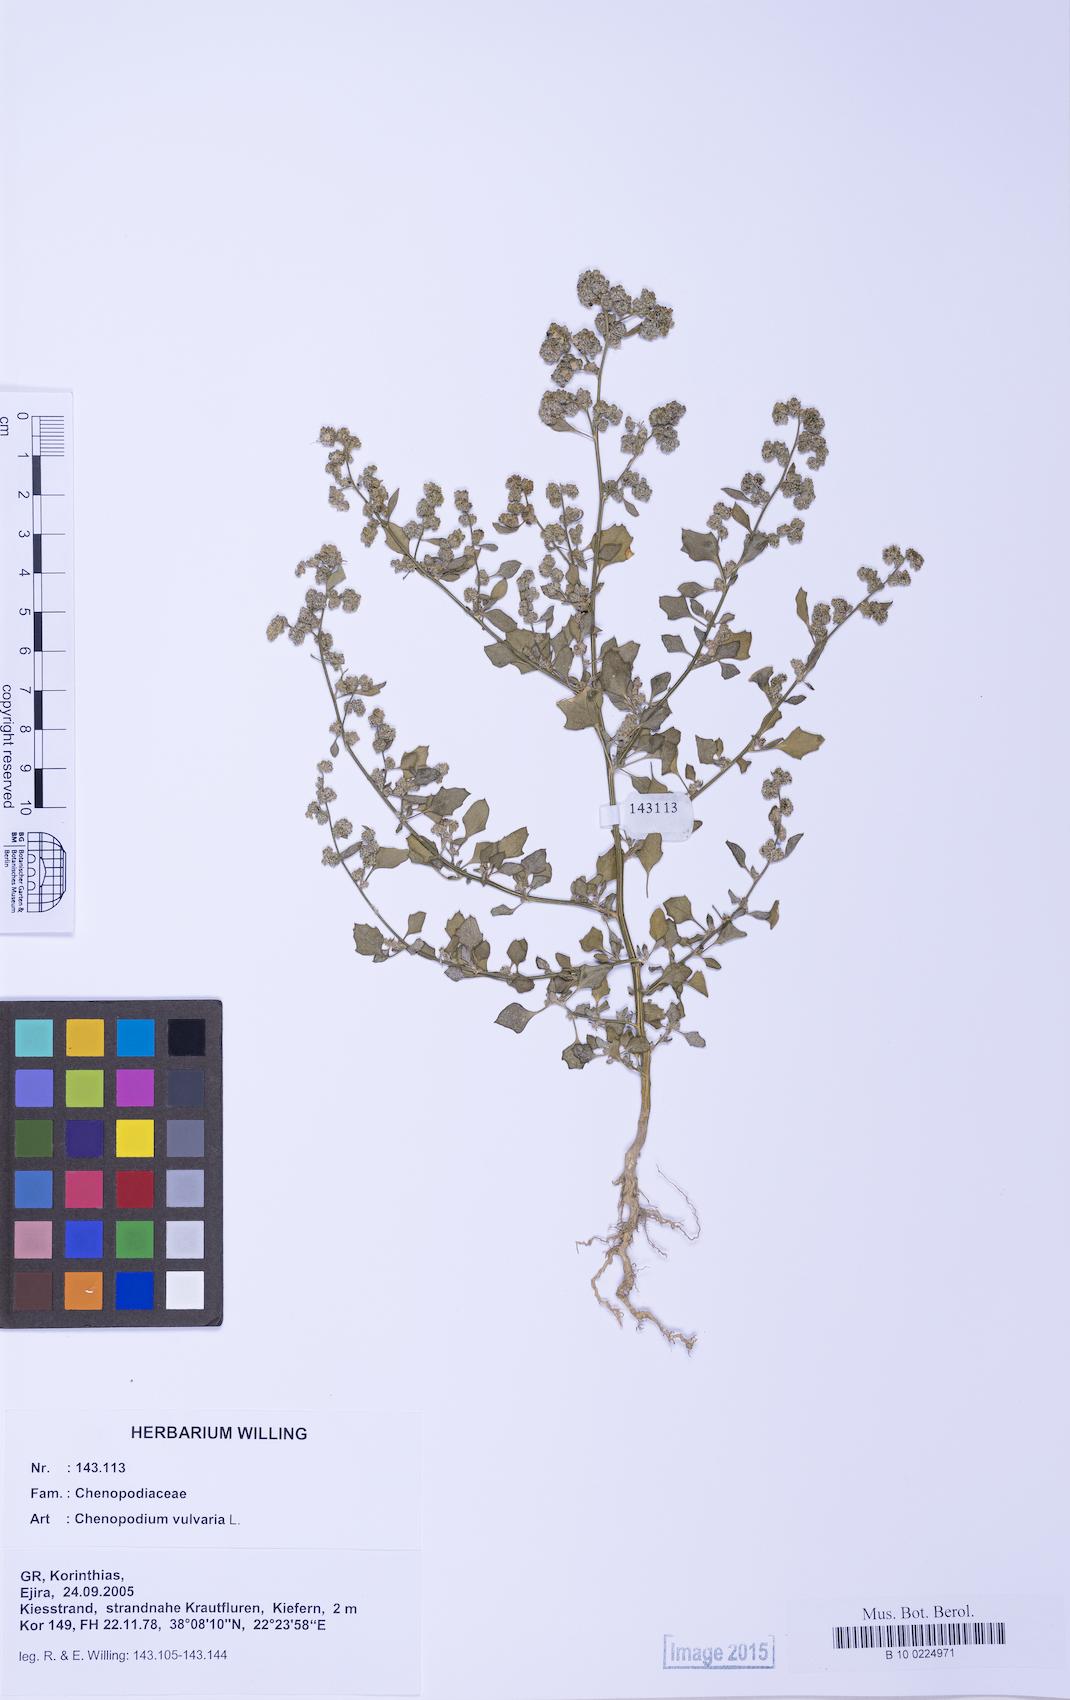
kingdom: Plantae
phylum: Tracheophyta
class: Magnoliopsida
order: Caryophyllales
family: Amaranthaceae
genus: Chenopodium
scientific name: Chenopodium opulifolium
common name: Grey goosefoot
